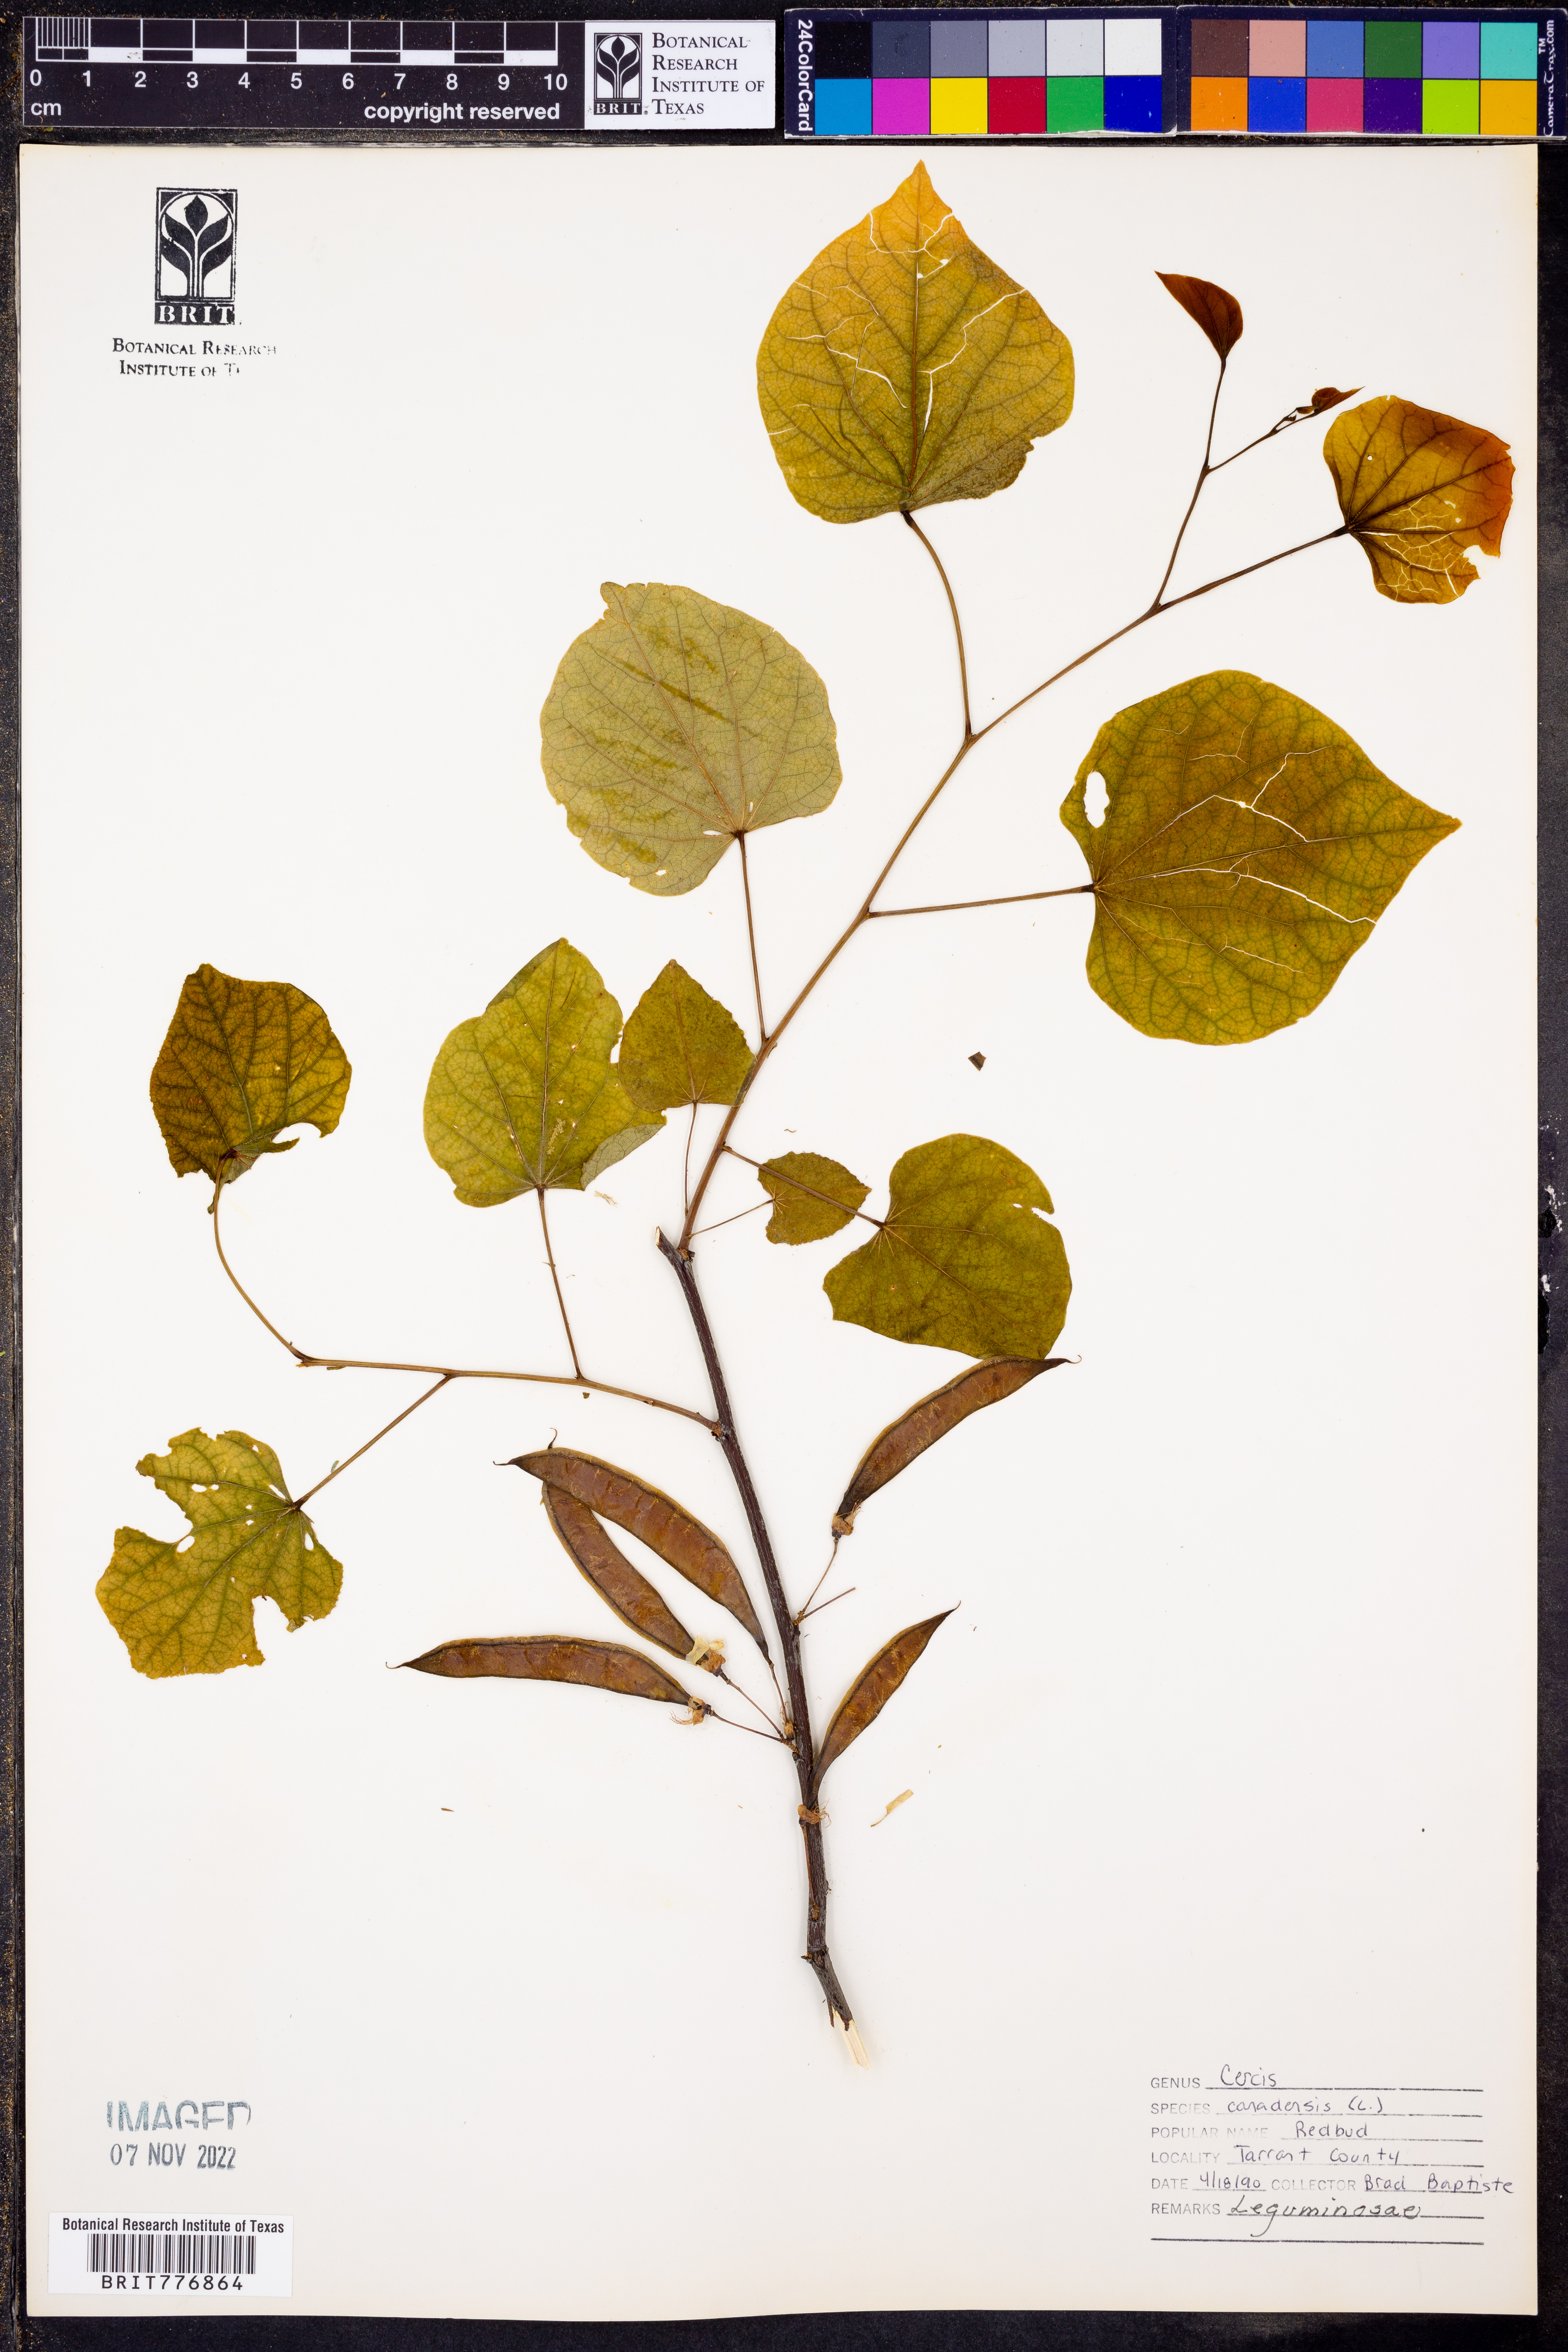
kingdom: Plantae
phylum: Tracheophyta
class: Magnoliopsida
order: Fabales
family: Fabaceae
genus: Cercis
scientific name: Cercis canadensis
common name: Eastern redbud
